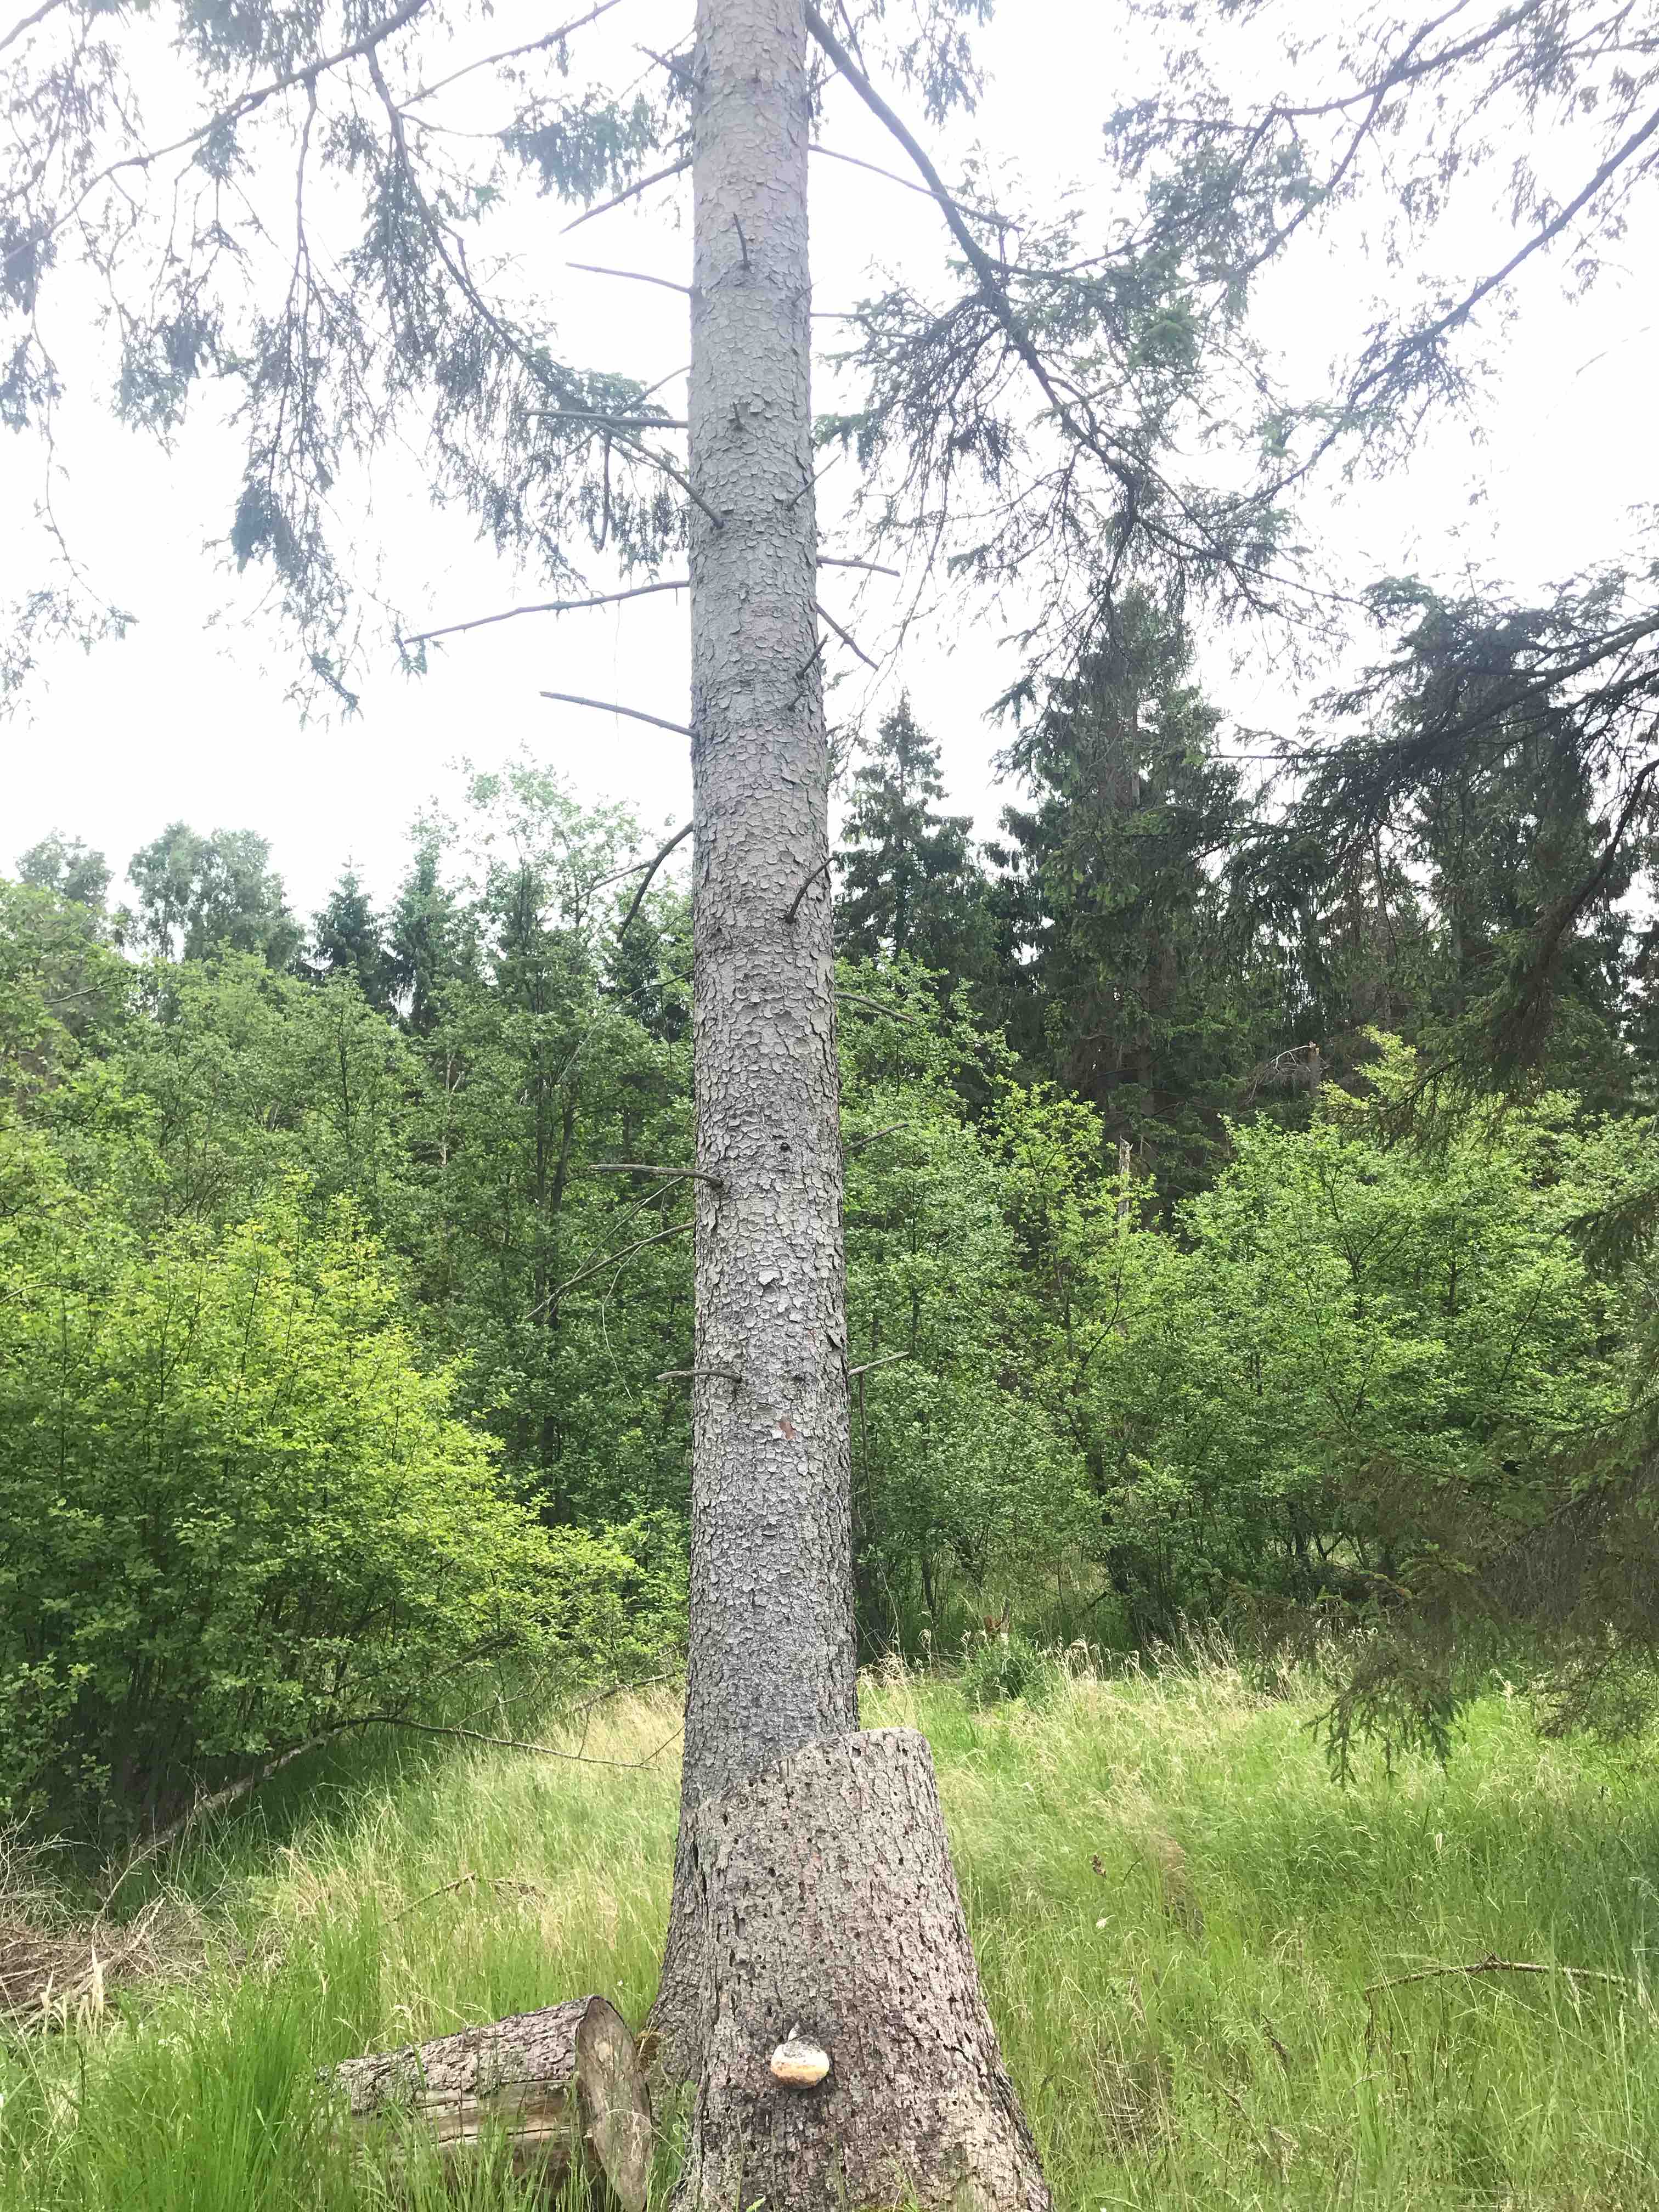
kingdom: Fungi
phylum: Basidiomycota
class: Agaricomycetes
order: Polyporales
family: Fomitopsidaceae
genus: Fomitopsis
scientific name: Fomitopsis pinicola
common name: randbæltet hovporesvamp
